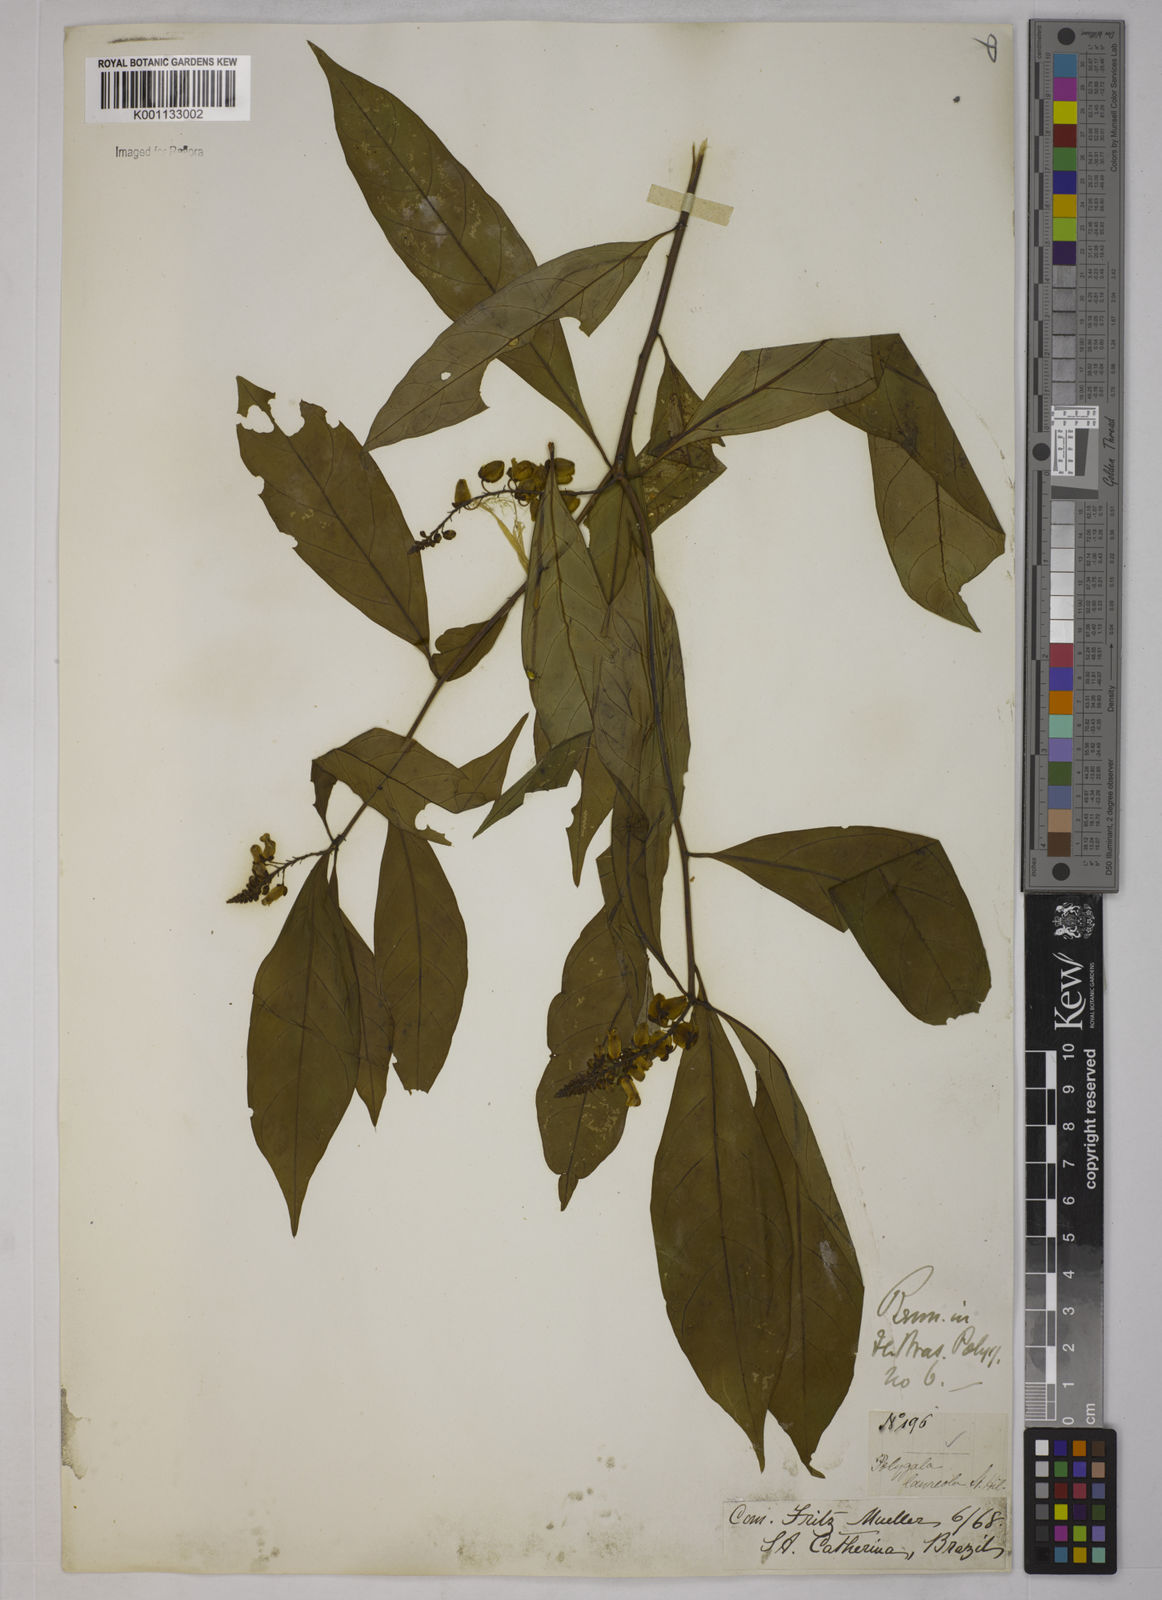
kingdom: Plantae
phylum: Tracheophyta
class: Magnoliopsida
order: Fabales
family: Polygalaceae
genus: Caamembeca
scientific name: Caamembeca salicifolia
